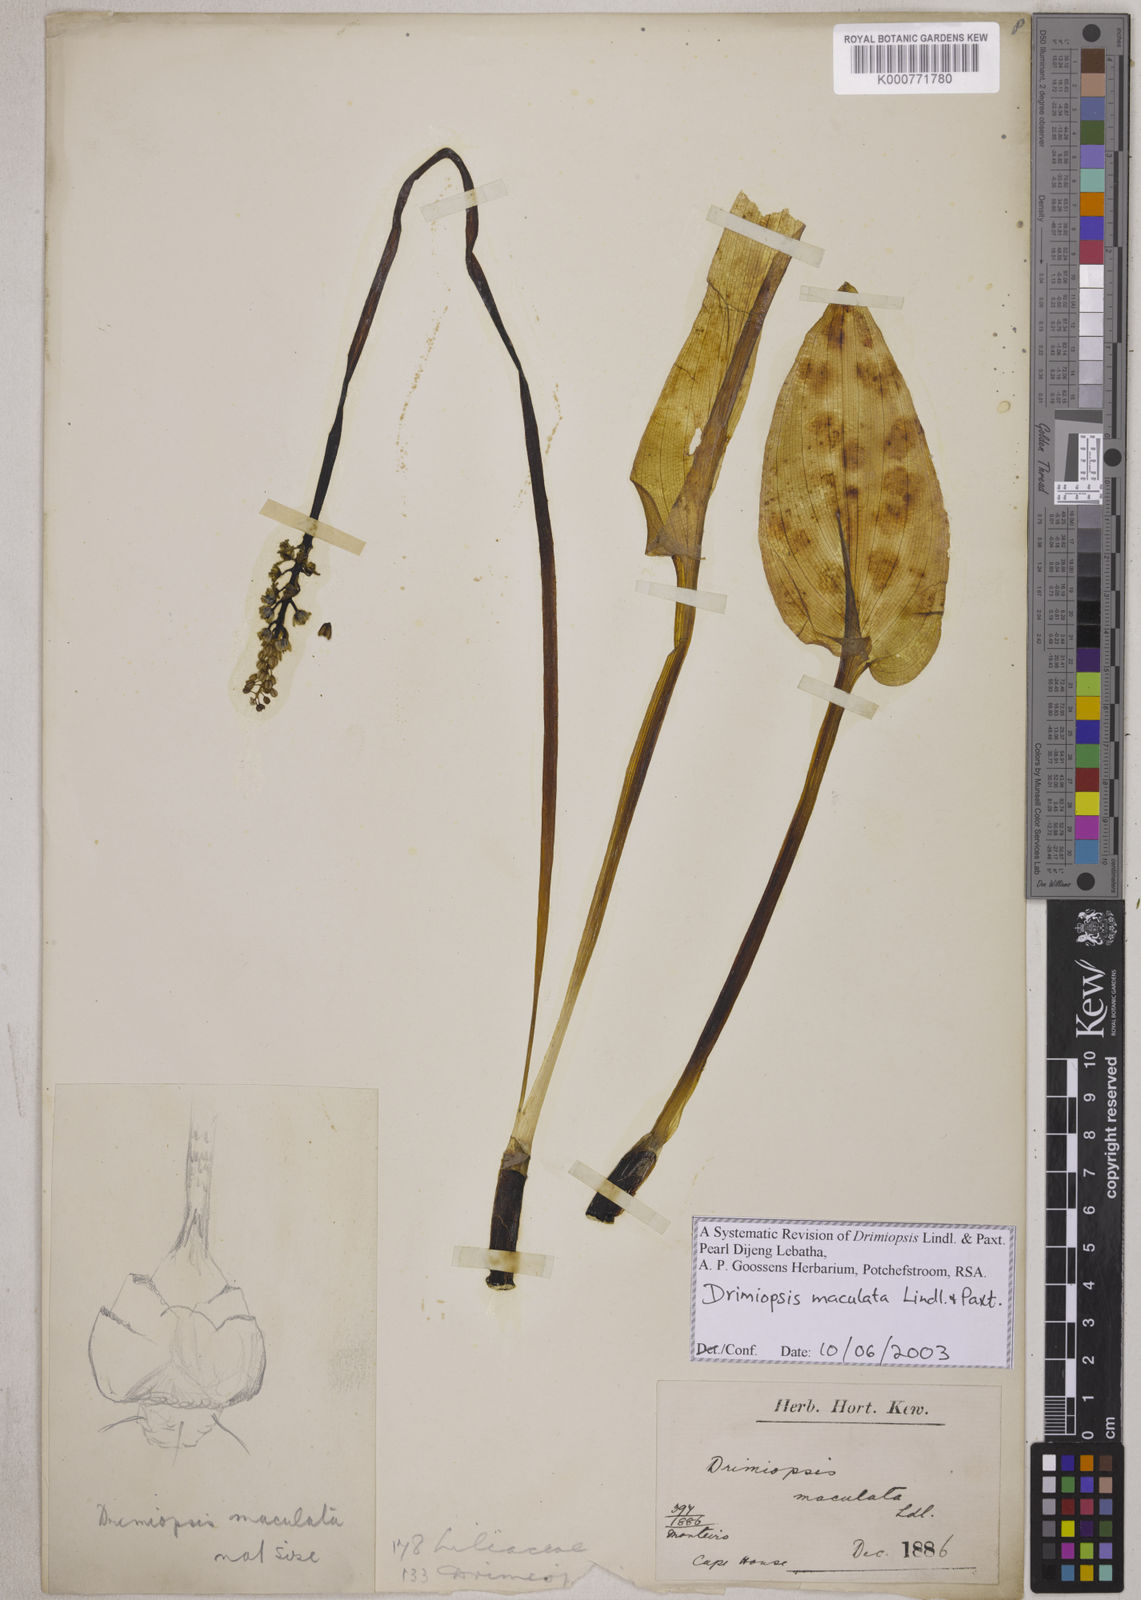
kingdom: Plantae
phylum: Tracheophyta
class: Liliopsida
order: Asparagales
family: Asparagaceae
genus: Drimiopsis
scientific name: Drimiopsis maculata
